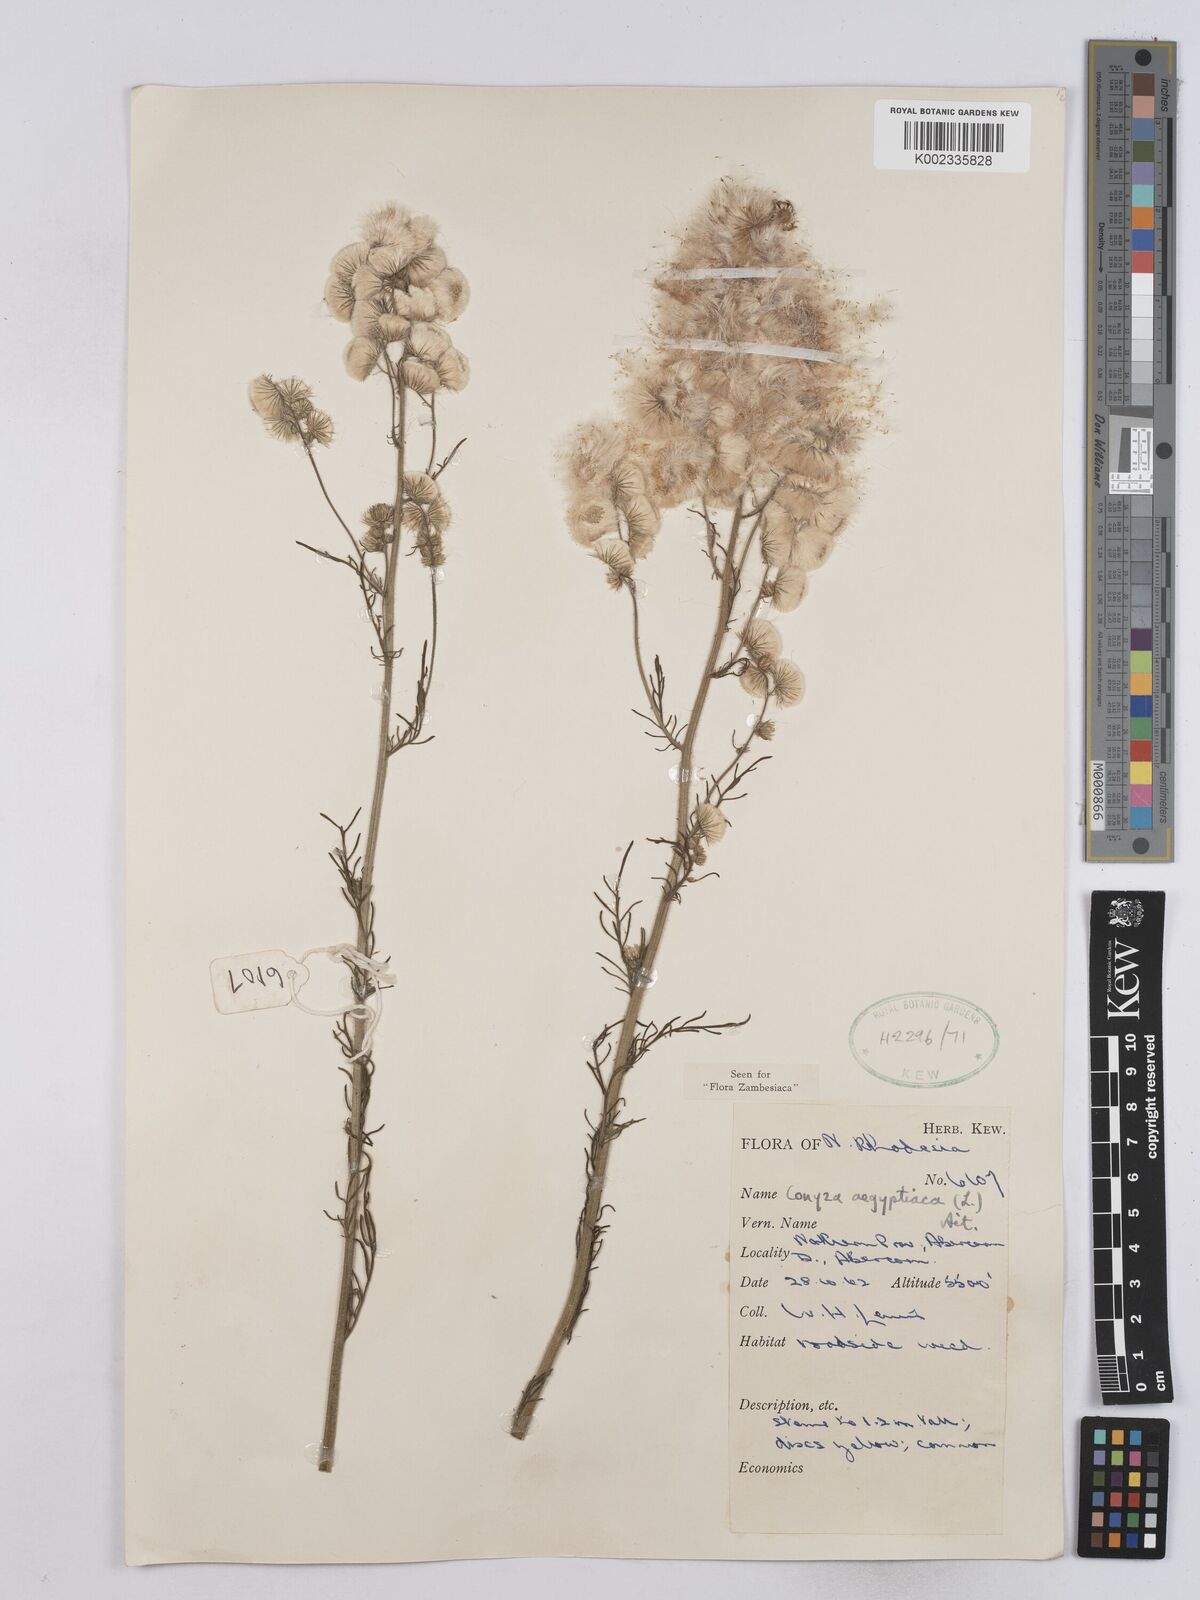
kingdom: Plantae
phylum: Tracheophyta
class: Magnoliopsida
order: Asterales
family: Asteraceae
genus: Nidorella
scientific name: Nidorella aegyptiaca
